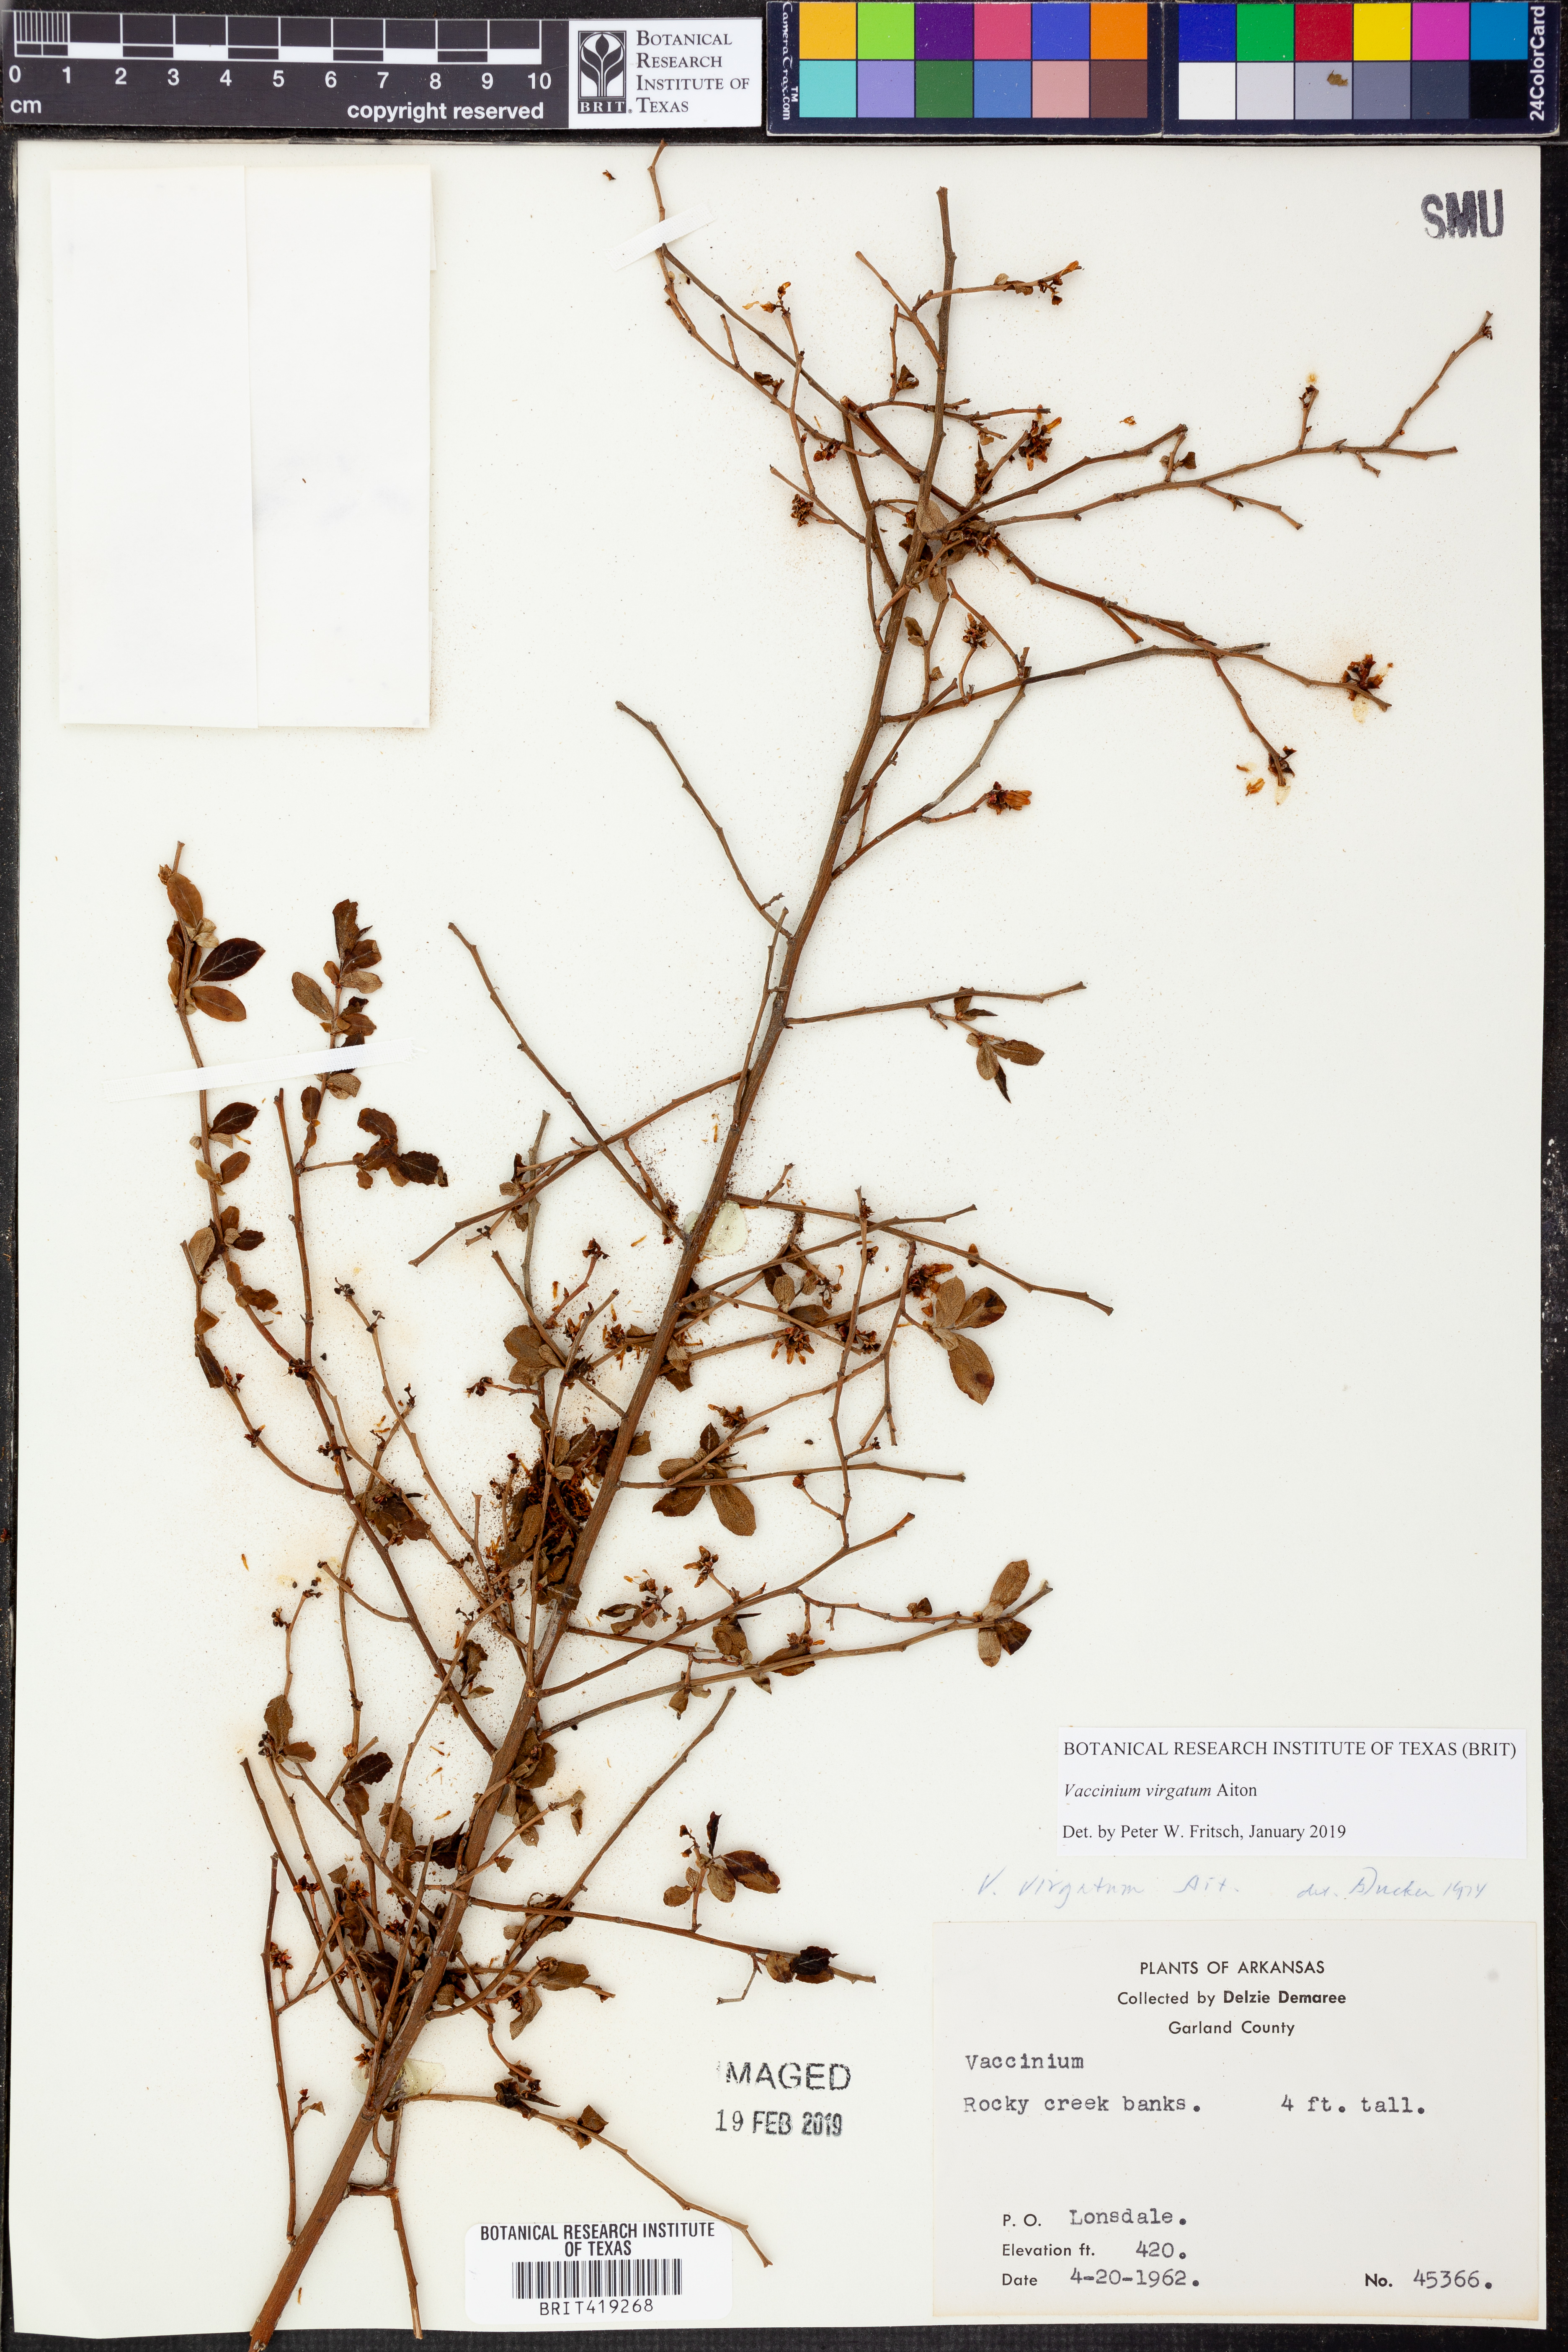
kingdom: Plantae
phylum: Tracheophyta
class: Magnoliopsida
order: Ericales
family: Ericaceae
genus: Vaccinium
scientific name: Vaccinium corymbosum
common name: Blueberry
